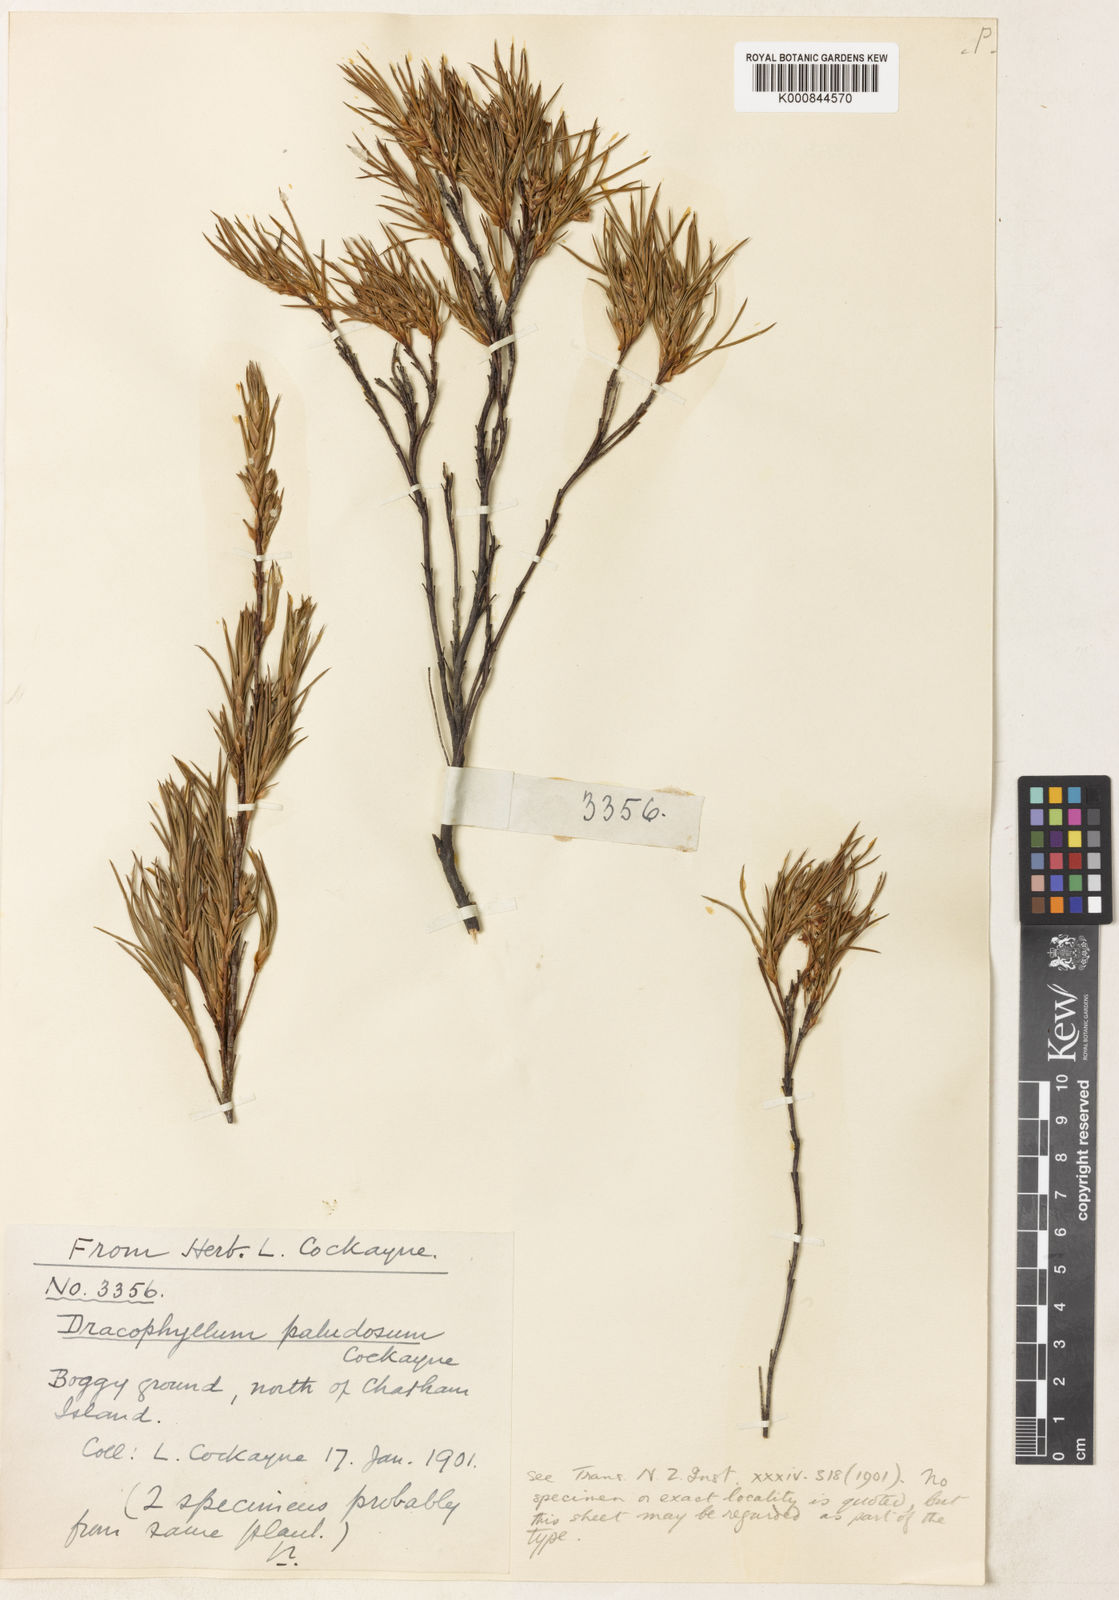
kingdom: Plantae
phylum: Tracheophyta
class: Magnoliopsida
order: Ericales
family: Ericaceae
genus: Dracophyllum
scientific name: Dracophyllum scoparium
